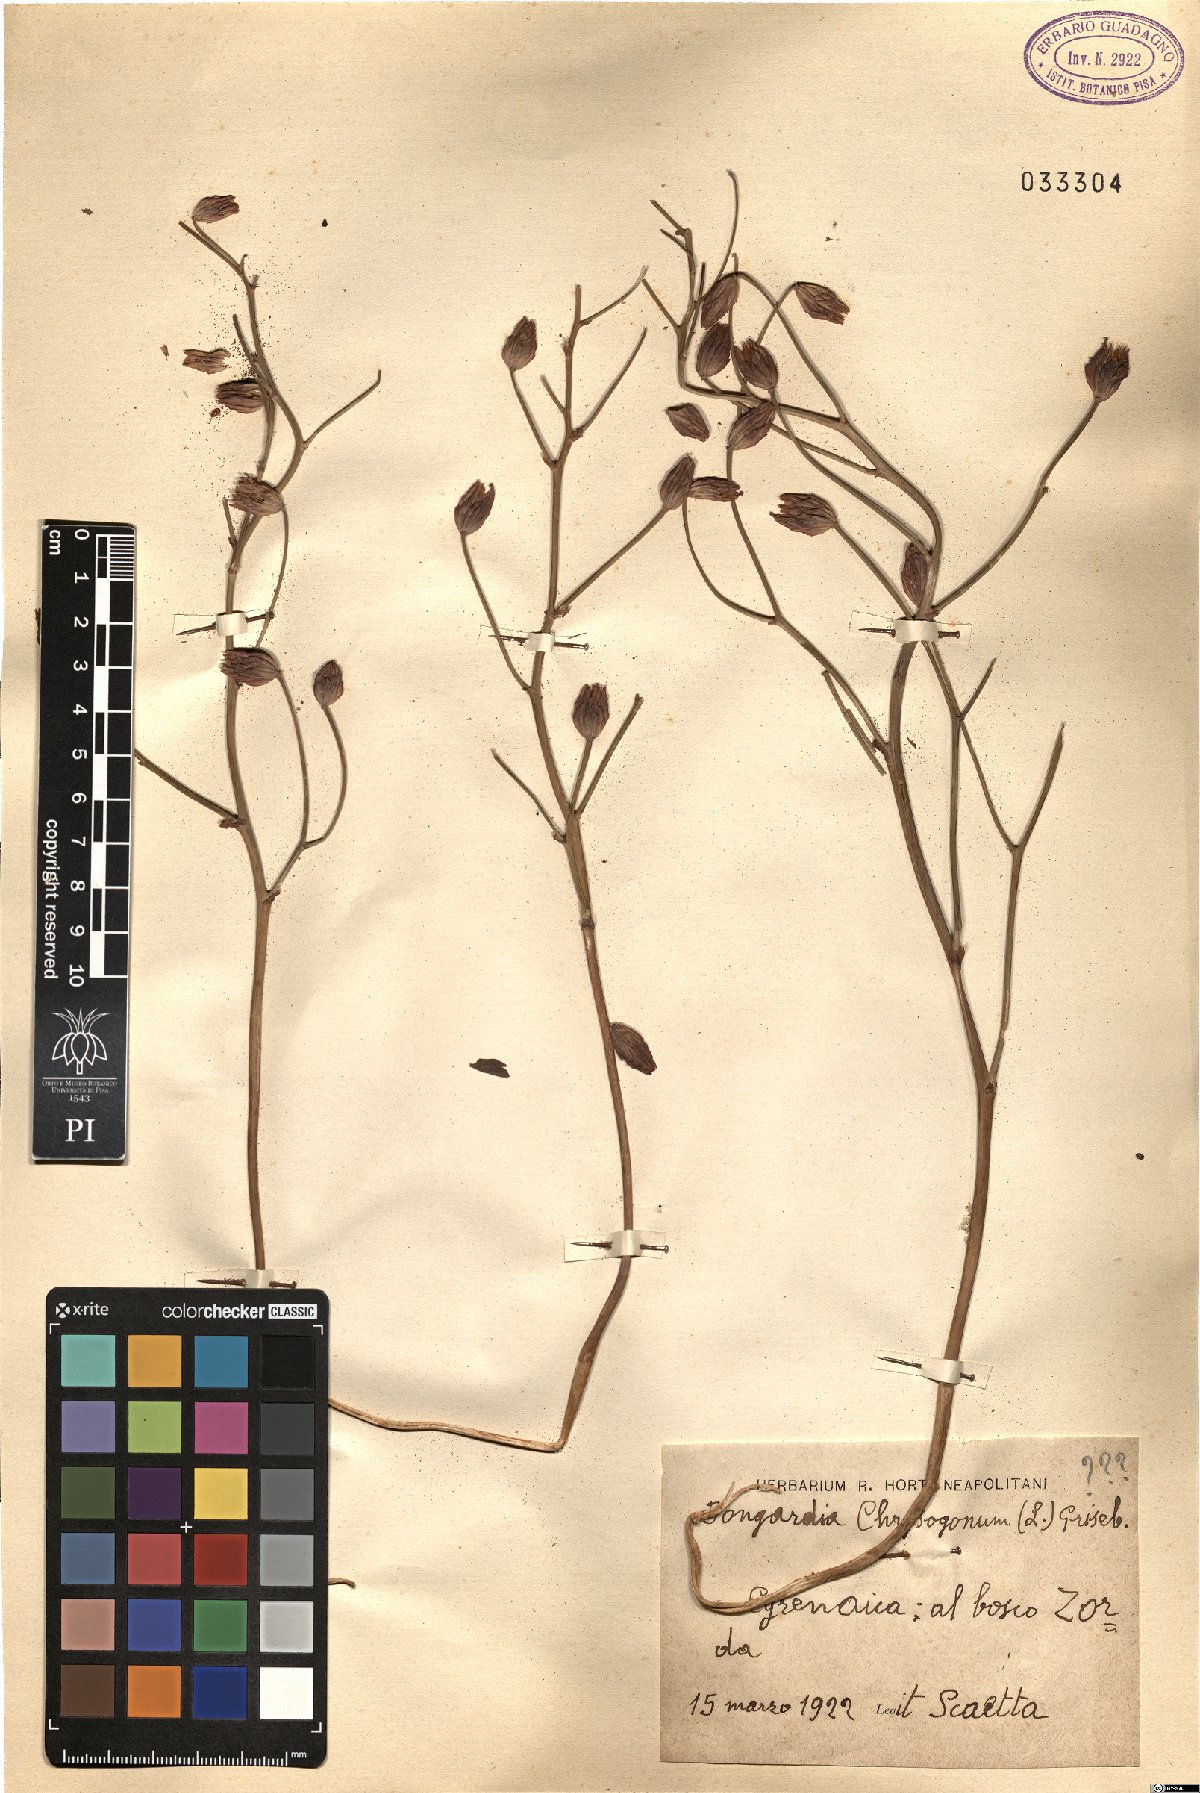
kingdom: Plantae
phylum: Tracheophyta
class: Magnoliopsida
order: Ranunculales
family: Berberidaceae
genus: Bongardia
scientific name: Bongardia chrysogonum
